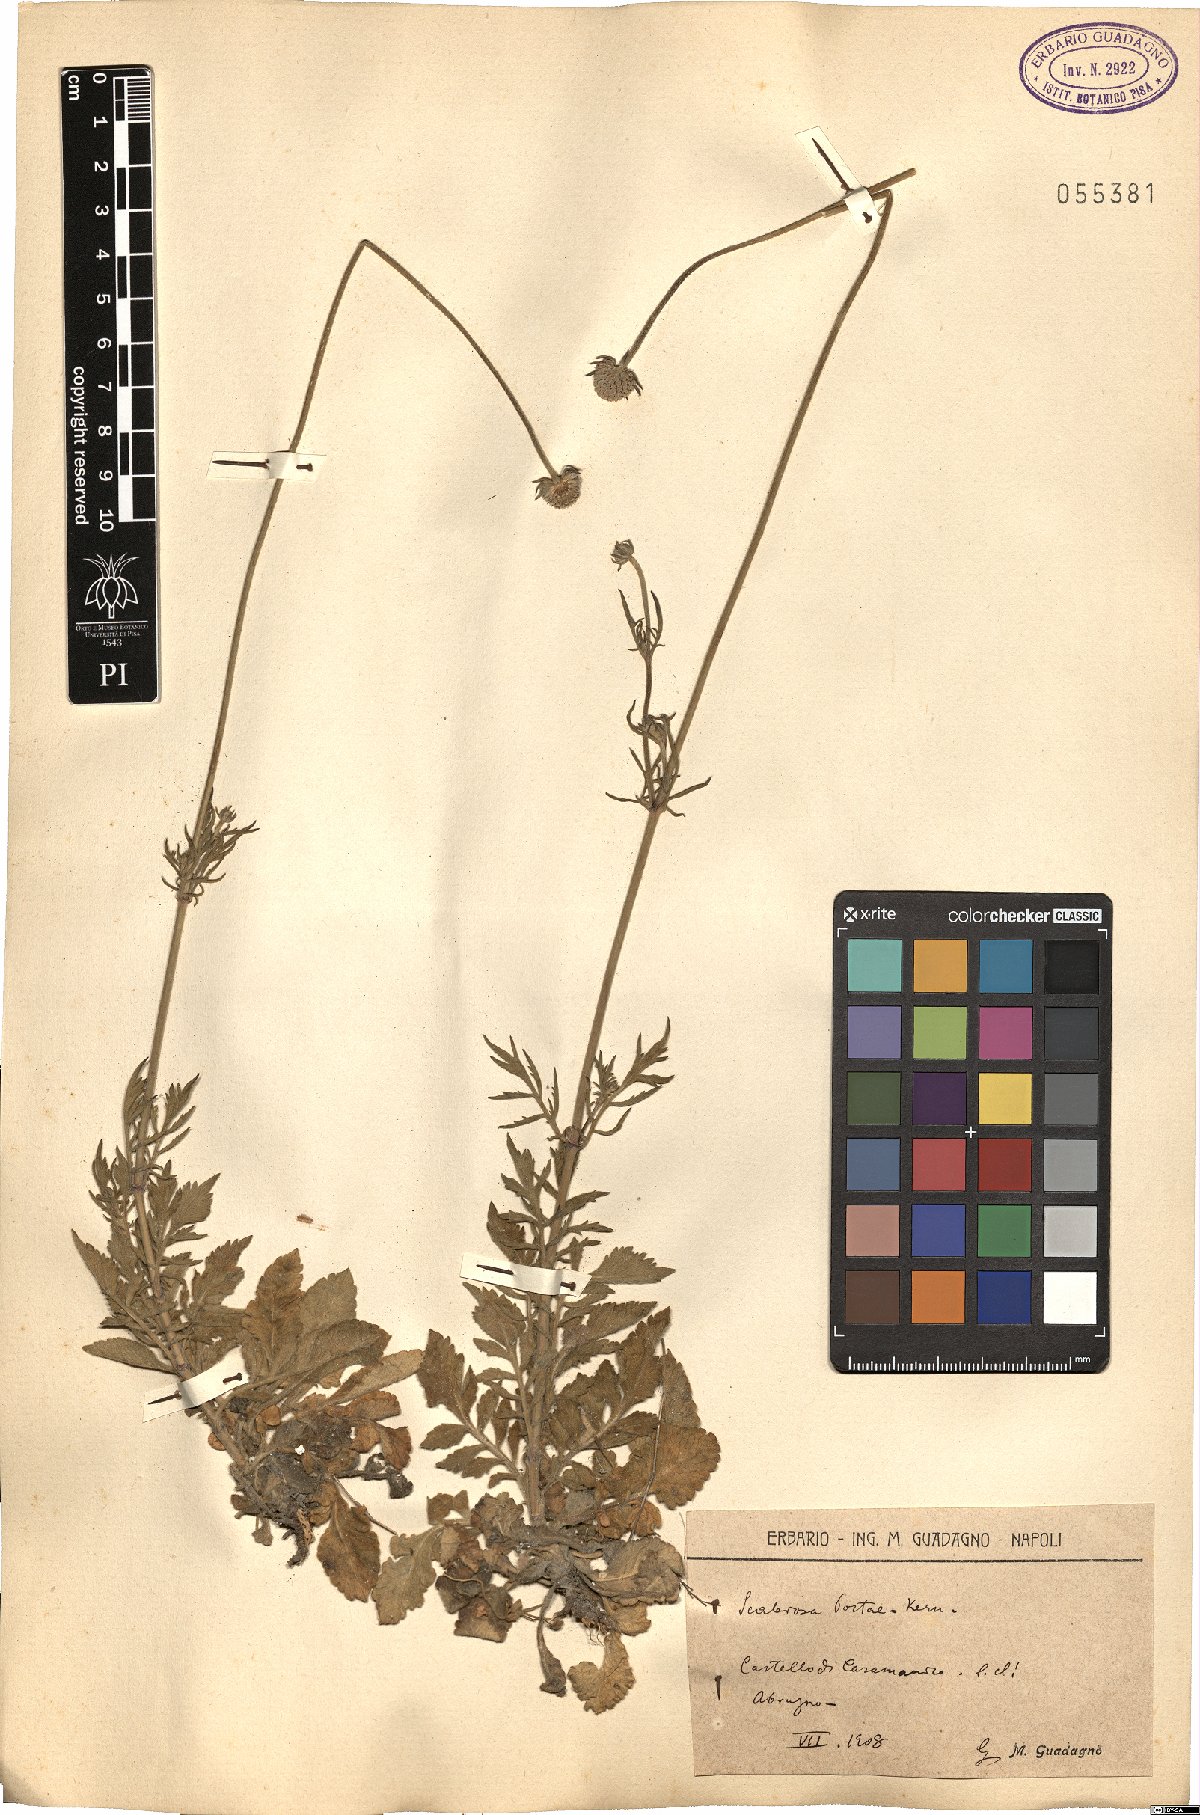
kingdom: Plantae
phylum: Tracheophyta
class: Magnoliopsida
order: Dipsacales
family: Caprifoliaceae
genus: Scabiosa
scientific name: Scabiosa taygetea
